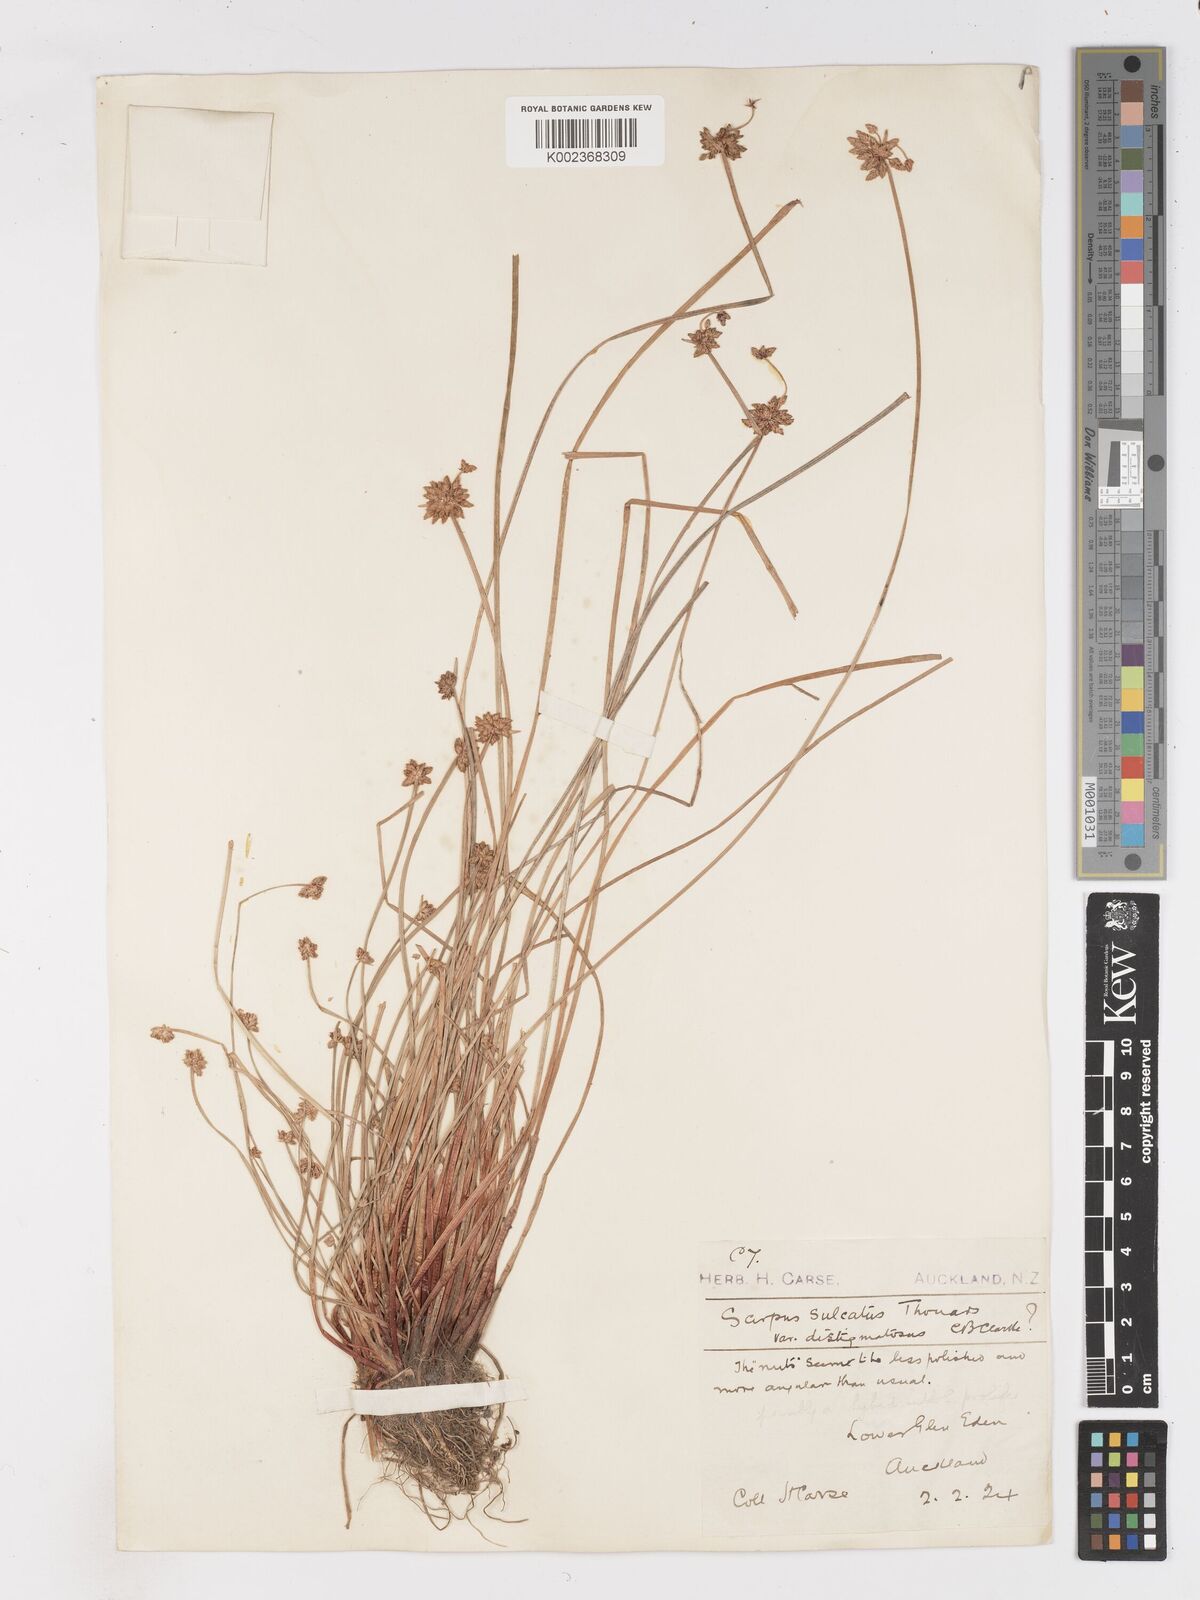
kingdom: Plantae
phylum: Tracheophyta
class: Liliopsida
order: Poales
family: Cyperaceae
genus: Isolepis
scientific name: Isolepis sulcata
